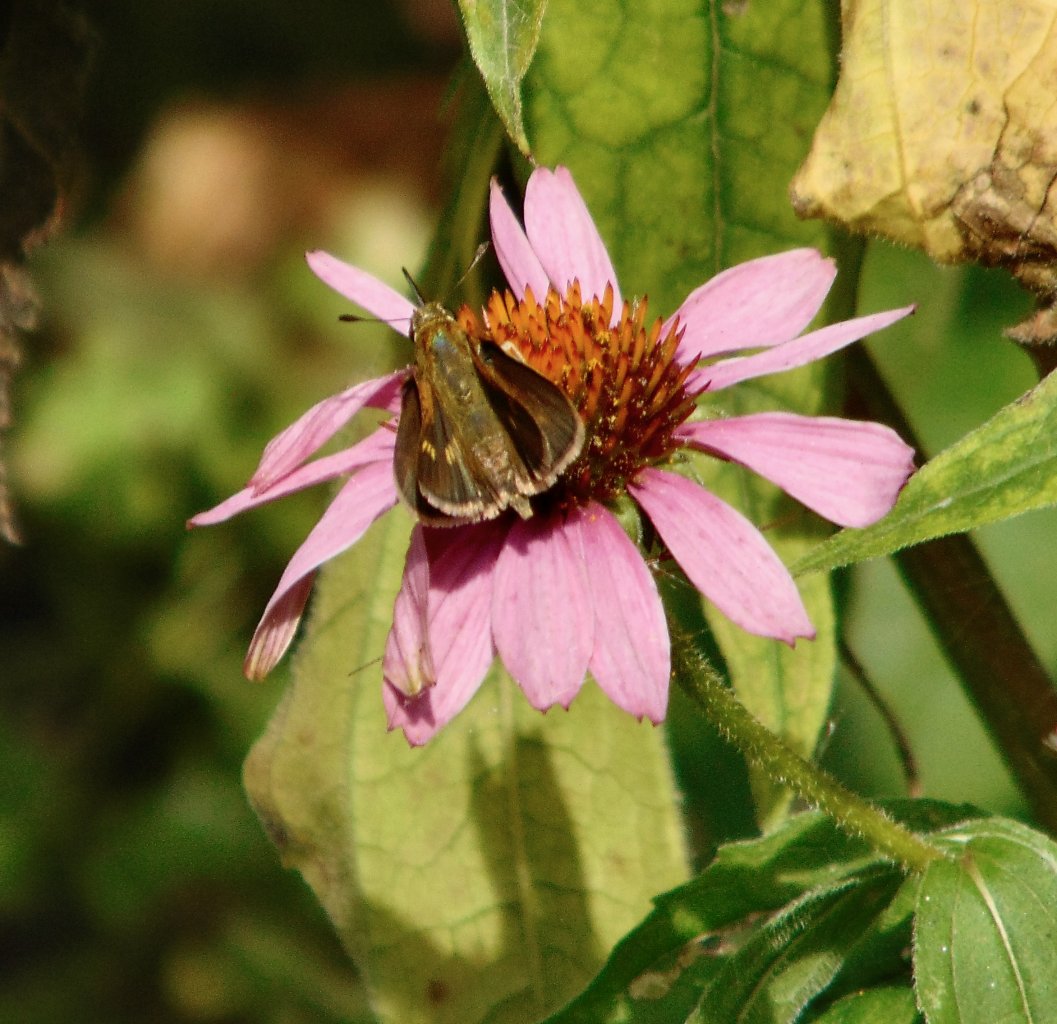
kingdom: Animalia
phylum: Arthropoda
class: Insecta
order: Lepidoptera
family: Hesperiidae
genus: Polites
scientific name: Polites themistocles
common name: Tawny-edged Skipper
